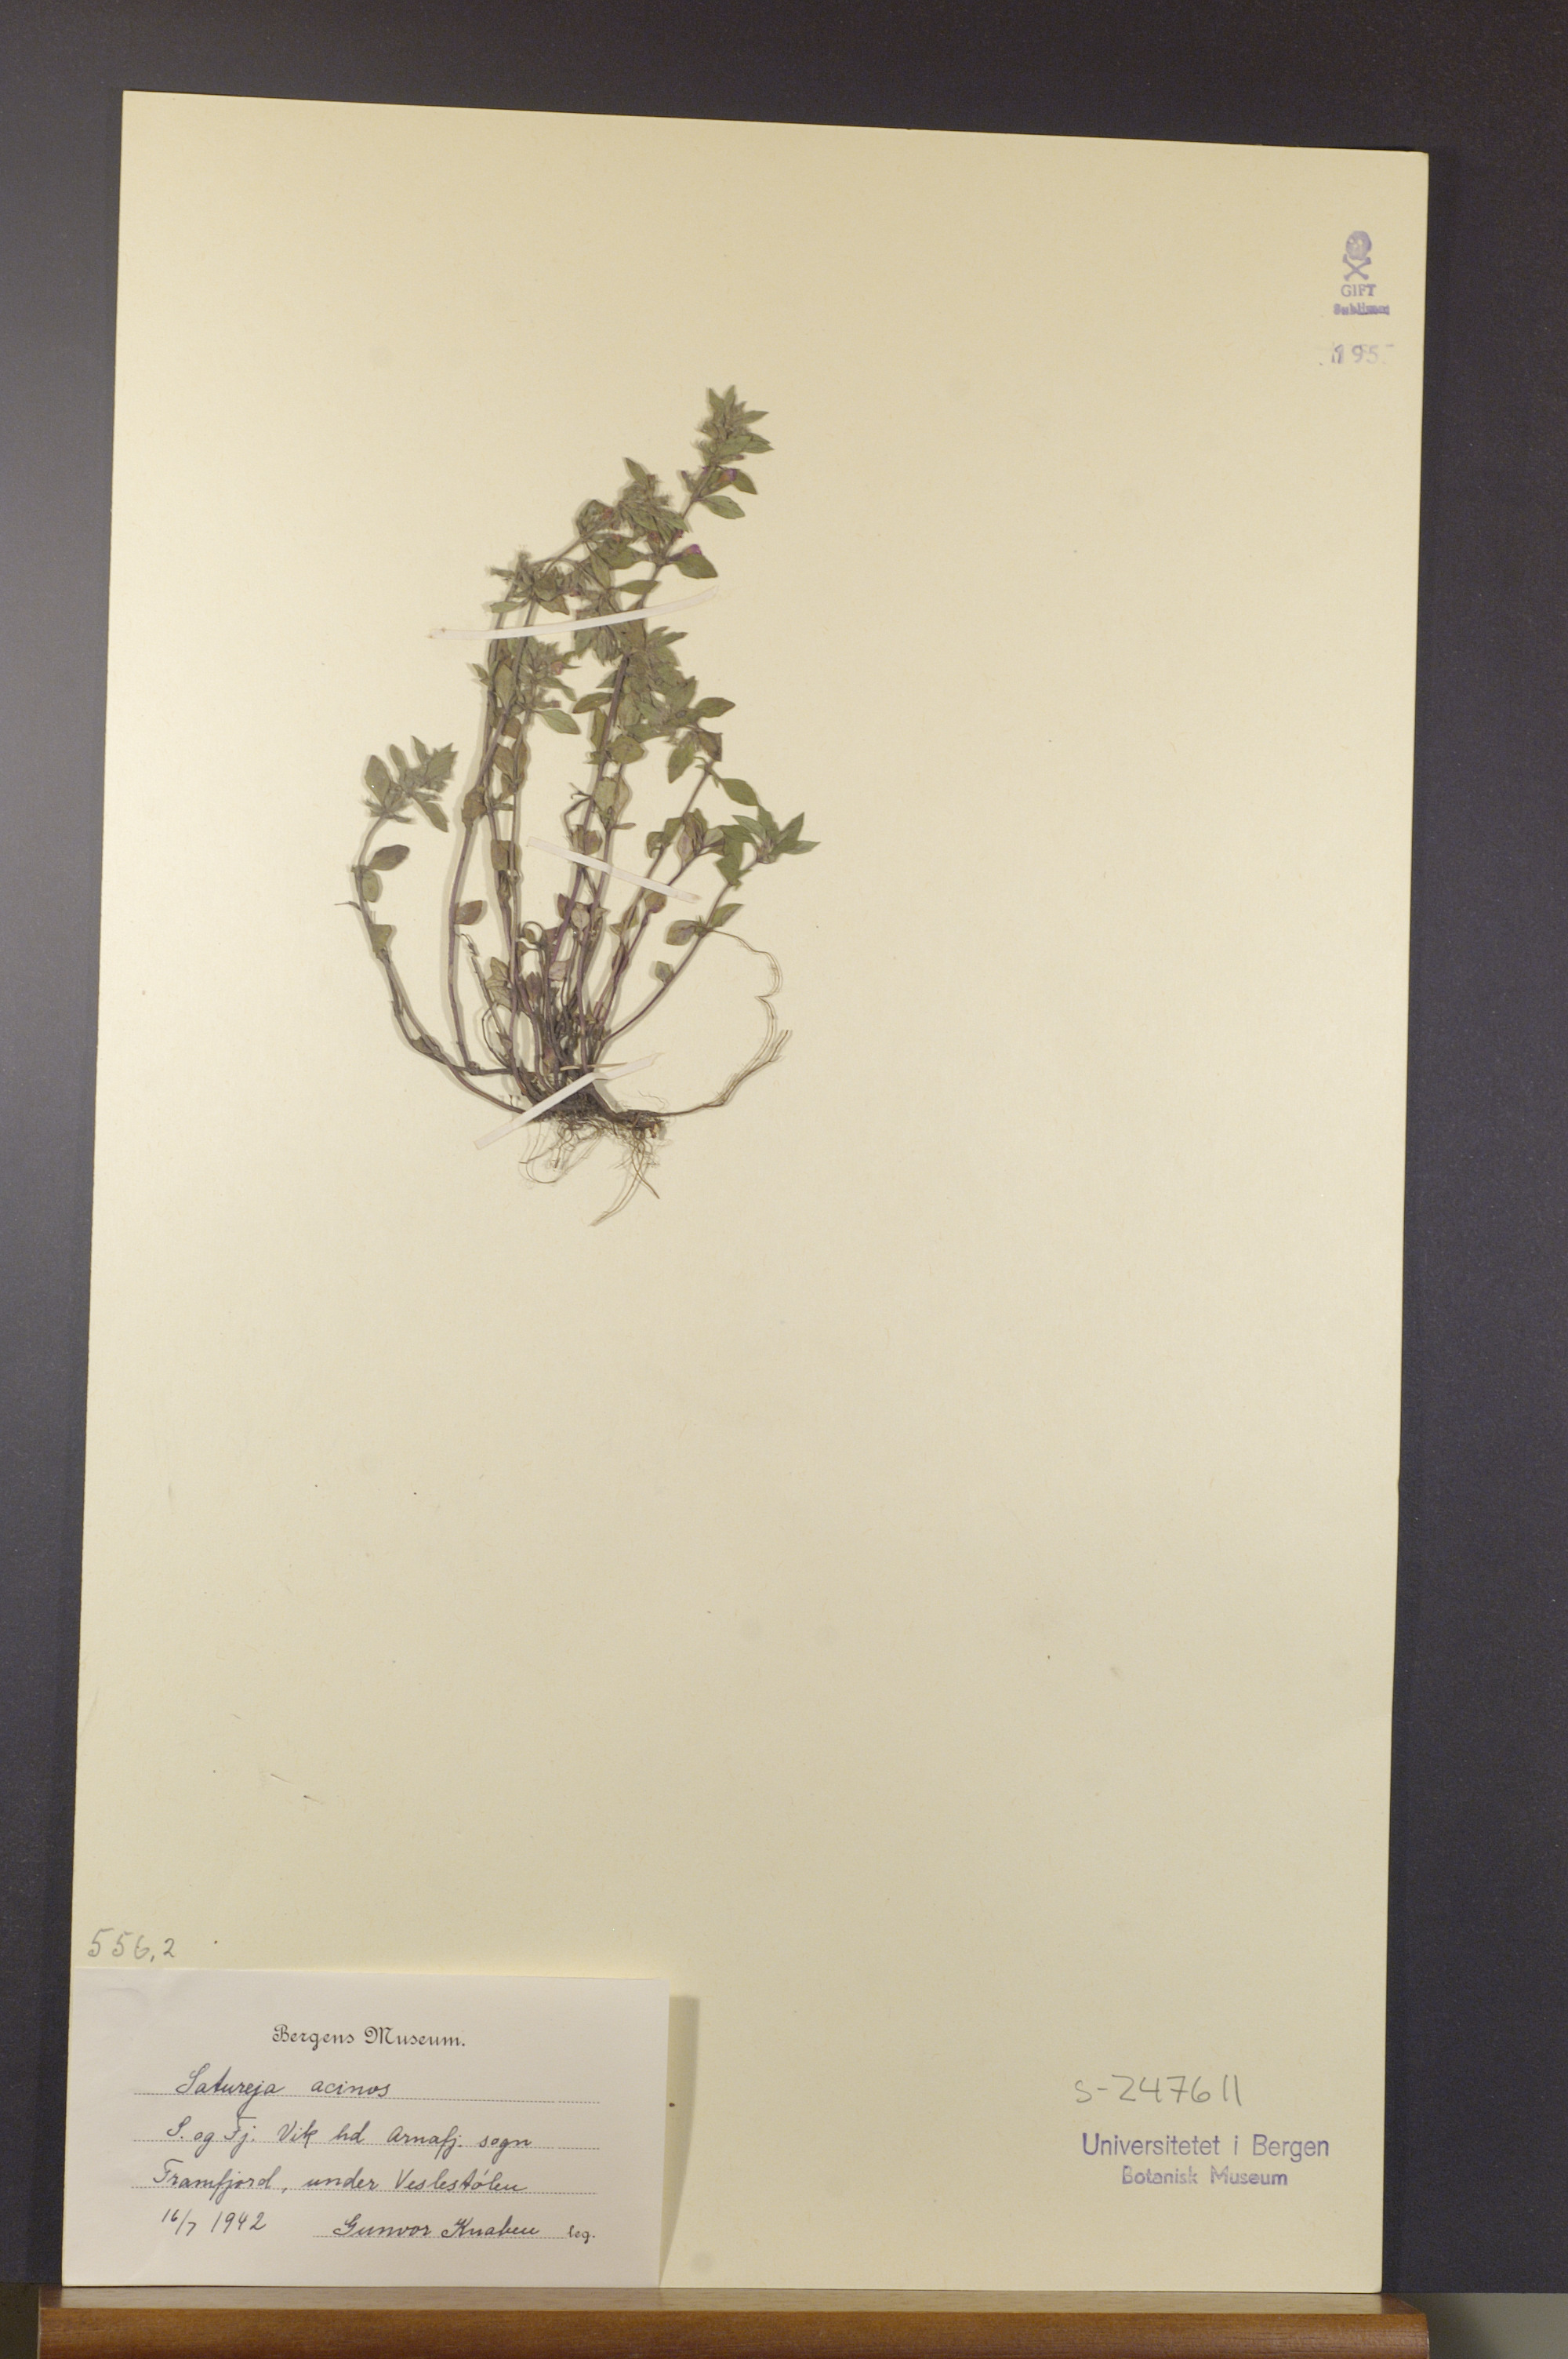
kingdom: Plantae
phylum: Tracheophyta
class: Magnoliopsida
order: Lamiales
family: Lamiaceae
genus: Clinopodium
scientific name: Clinopodium acinos
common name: Basil thyme
